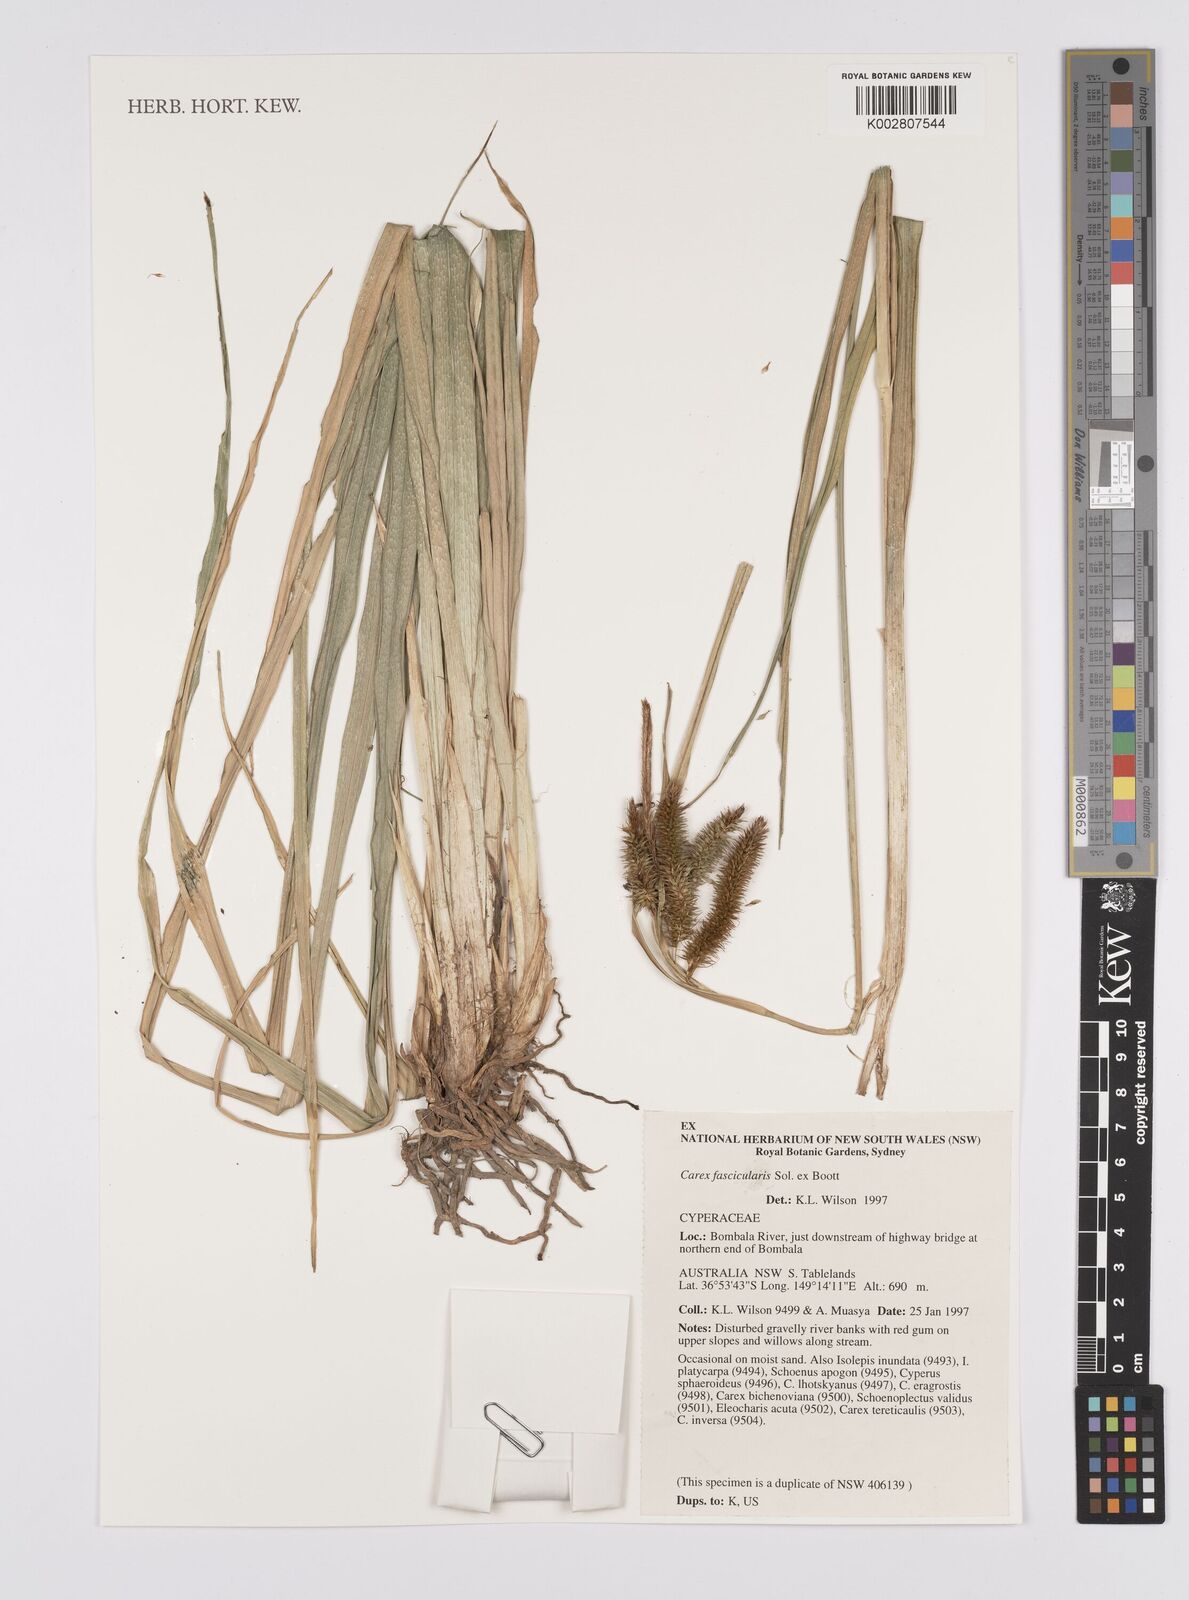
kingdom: Plantae
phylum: Tracheophyta
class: Liliopsida
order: Poales
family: Cyperaceae
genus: Carex
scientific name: Carex cespitosa
